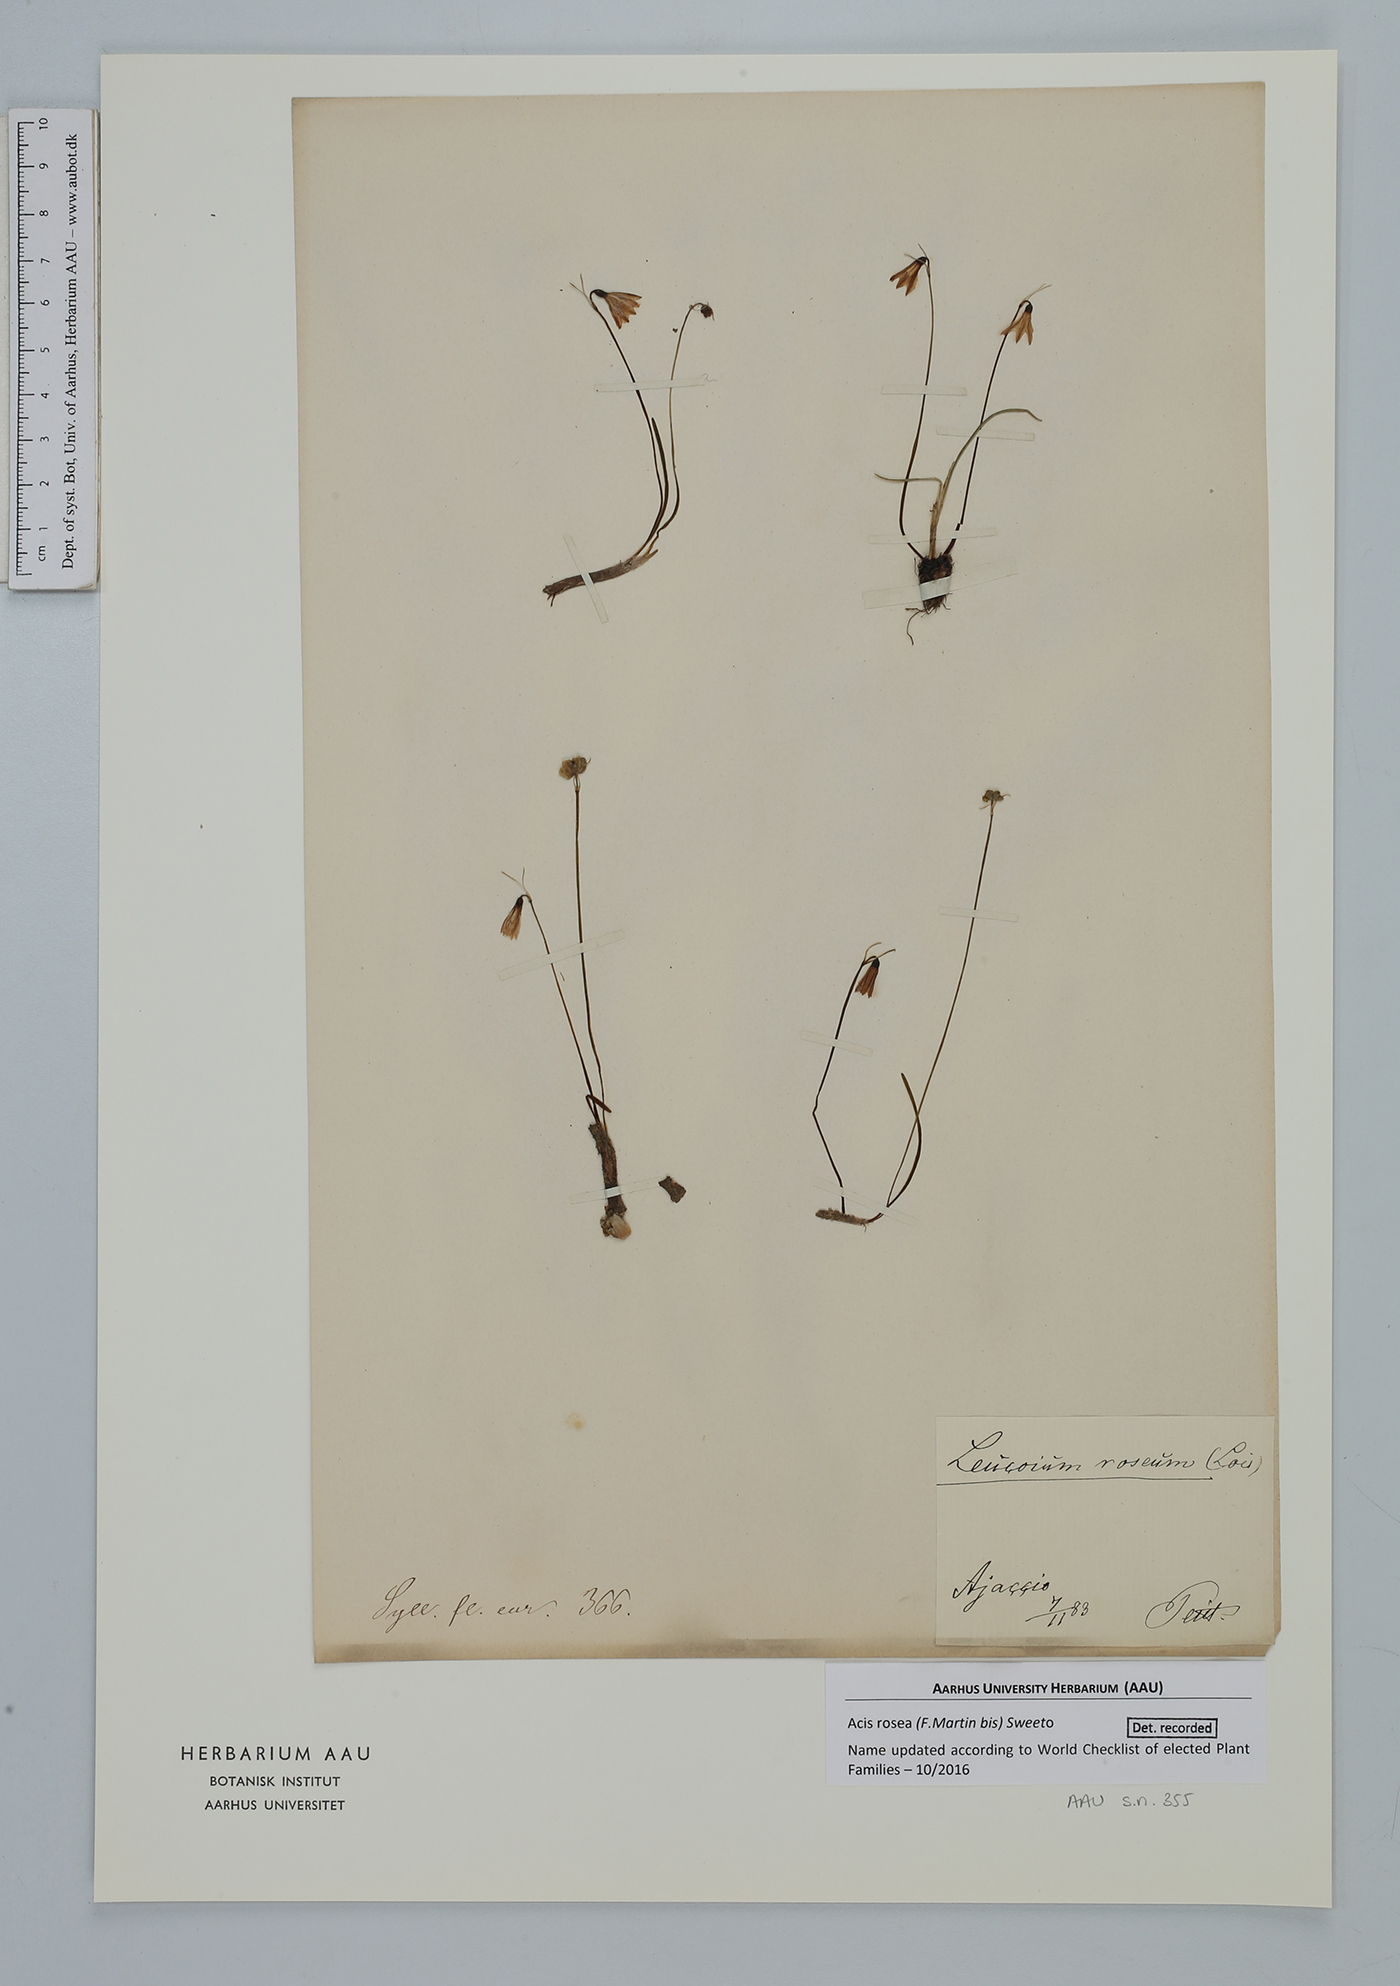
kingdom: Plantae
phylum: Tracheophyta
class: Liliopsida
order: Asparagales
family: Amaryllidaceae
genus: Acis
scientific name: Acis rosea
